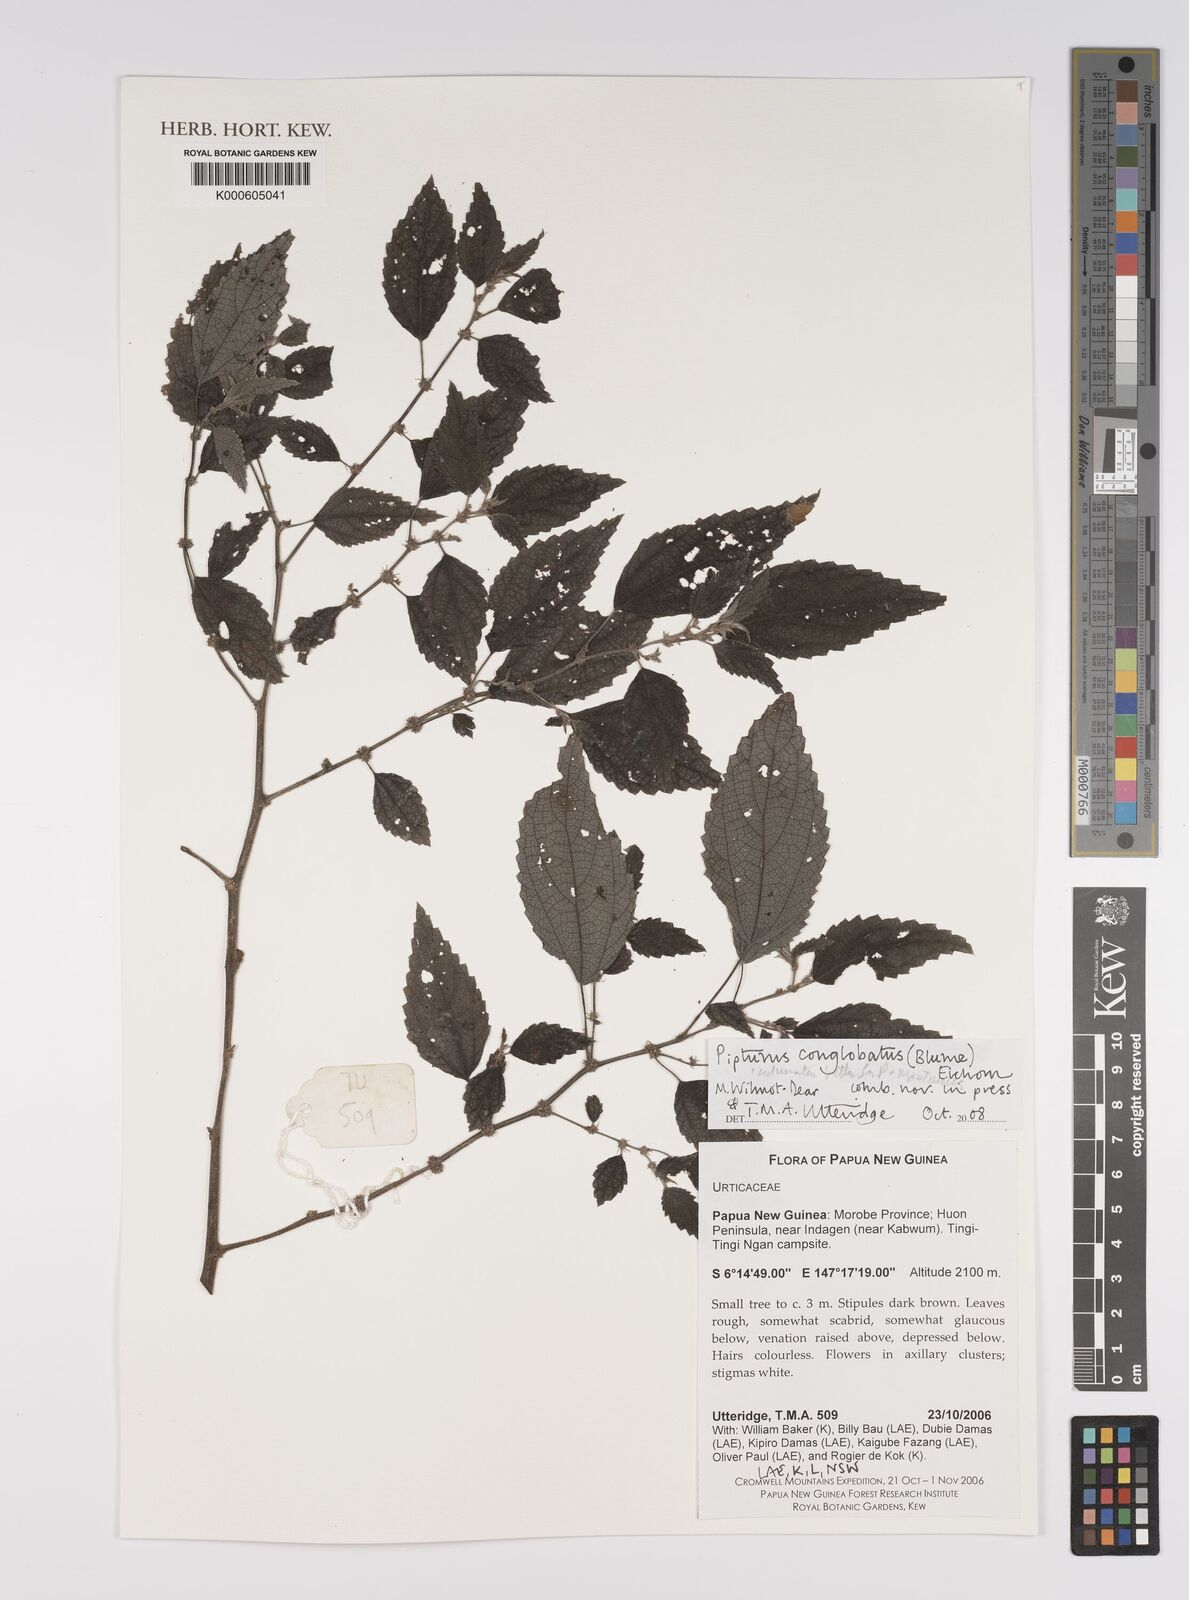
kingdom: Plantae
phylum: Tracheophyta
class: Magnoliopsida
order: Rosales
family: Urticaceae
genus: Pipturus
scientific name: Pipturus
